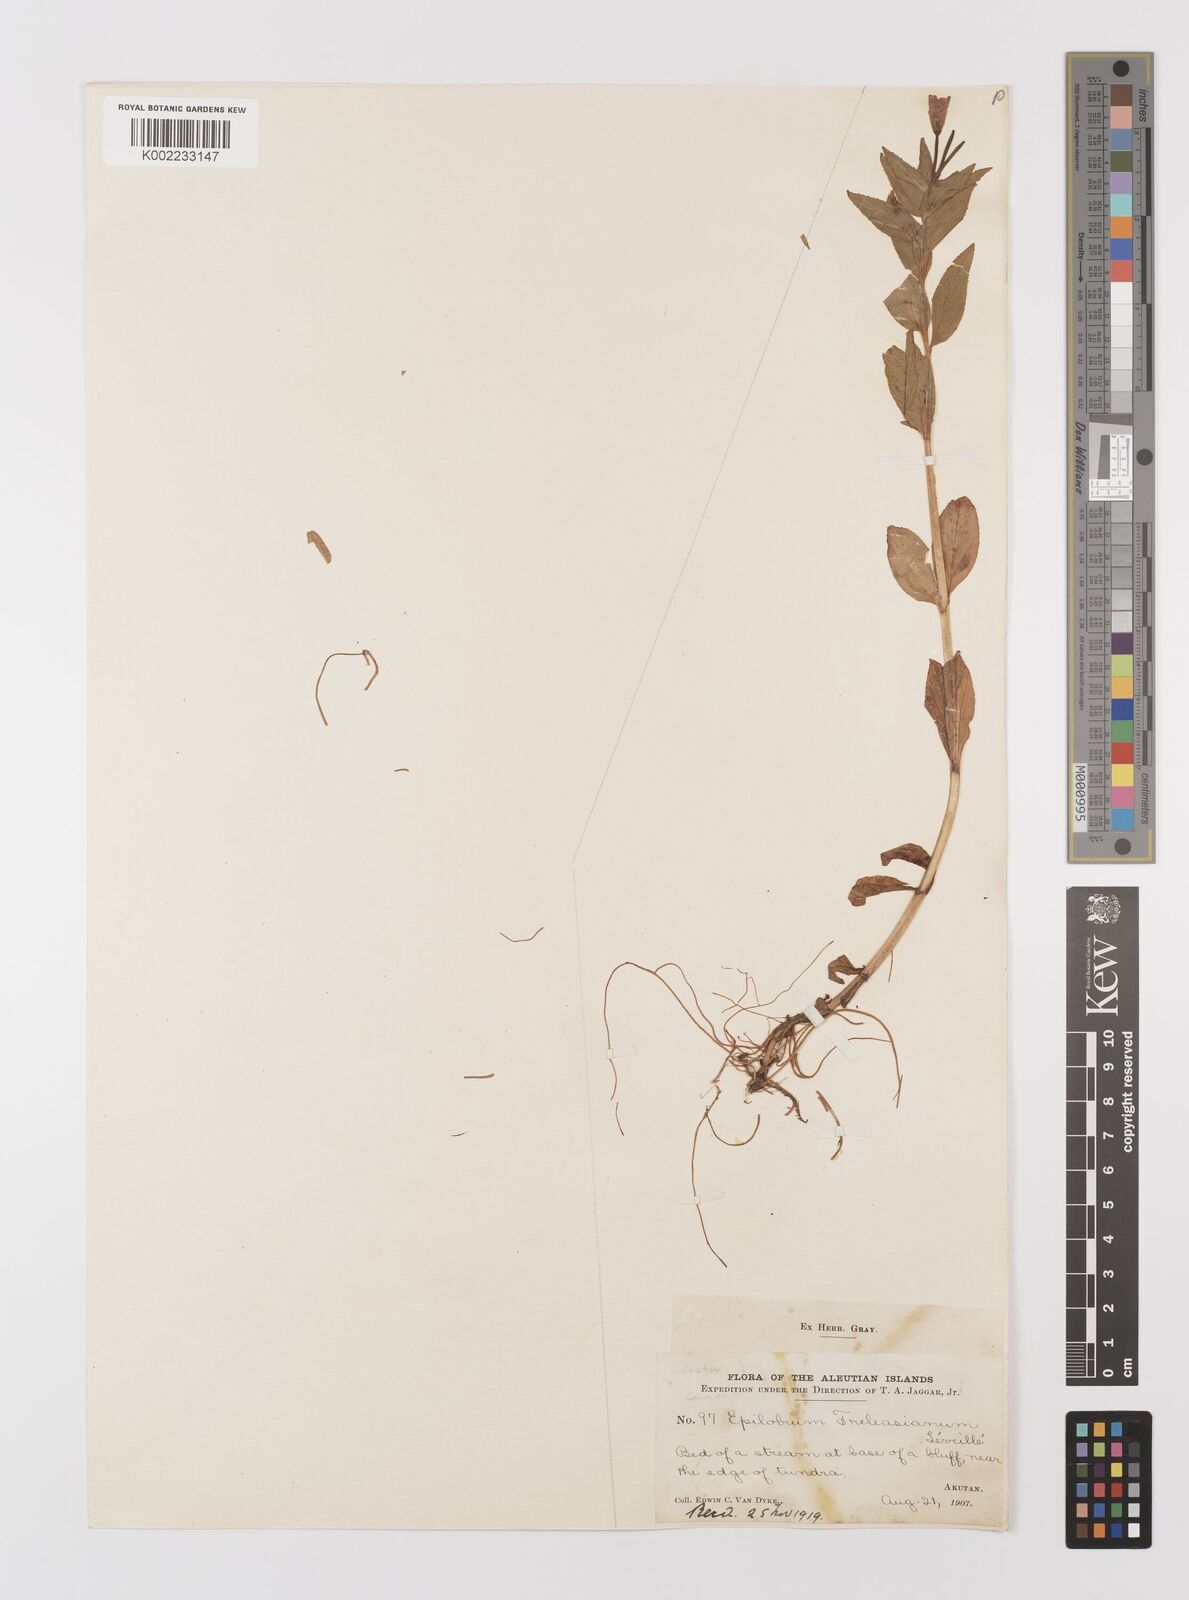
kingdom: Plantae
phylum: Tracheophyta
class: Magnoliopsida
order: Myrtales
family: Onagraceae
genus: Epilobium
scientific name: Epilobium treleaseanum
